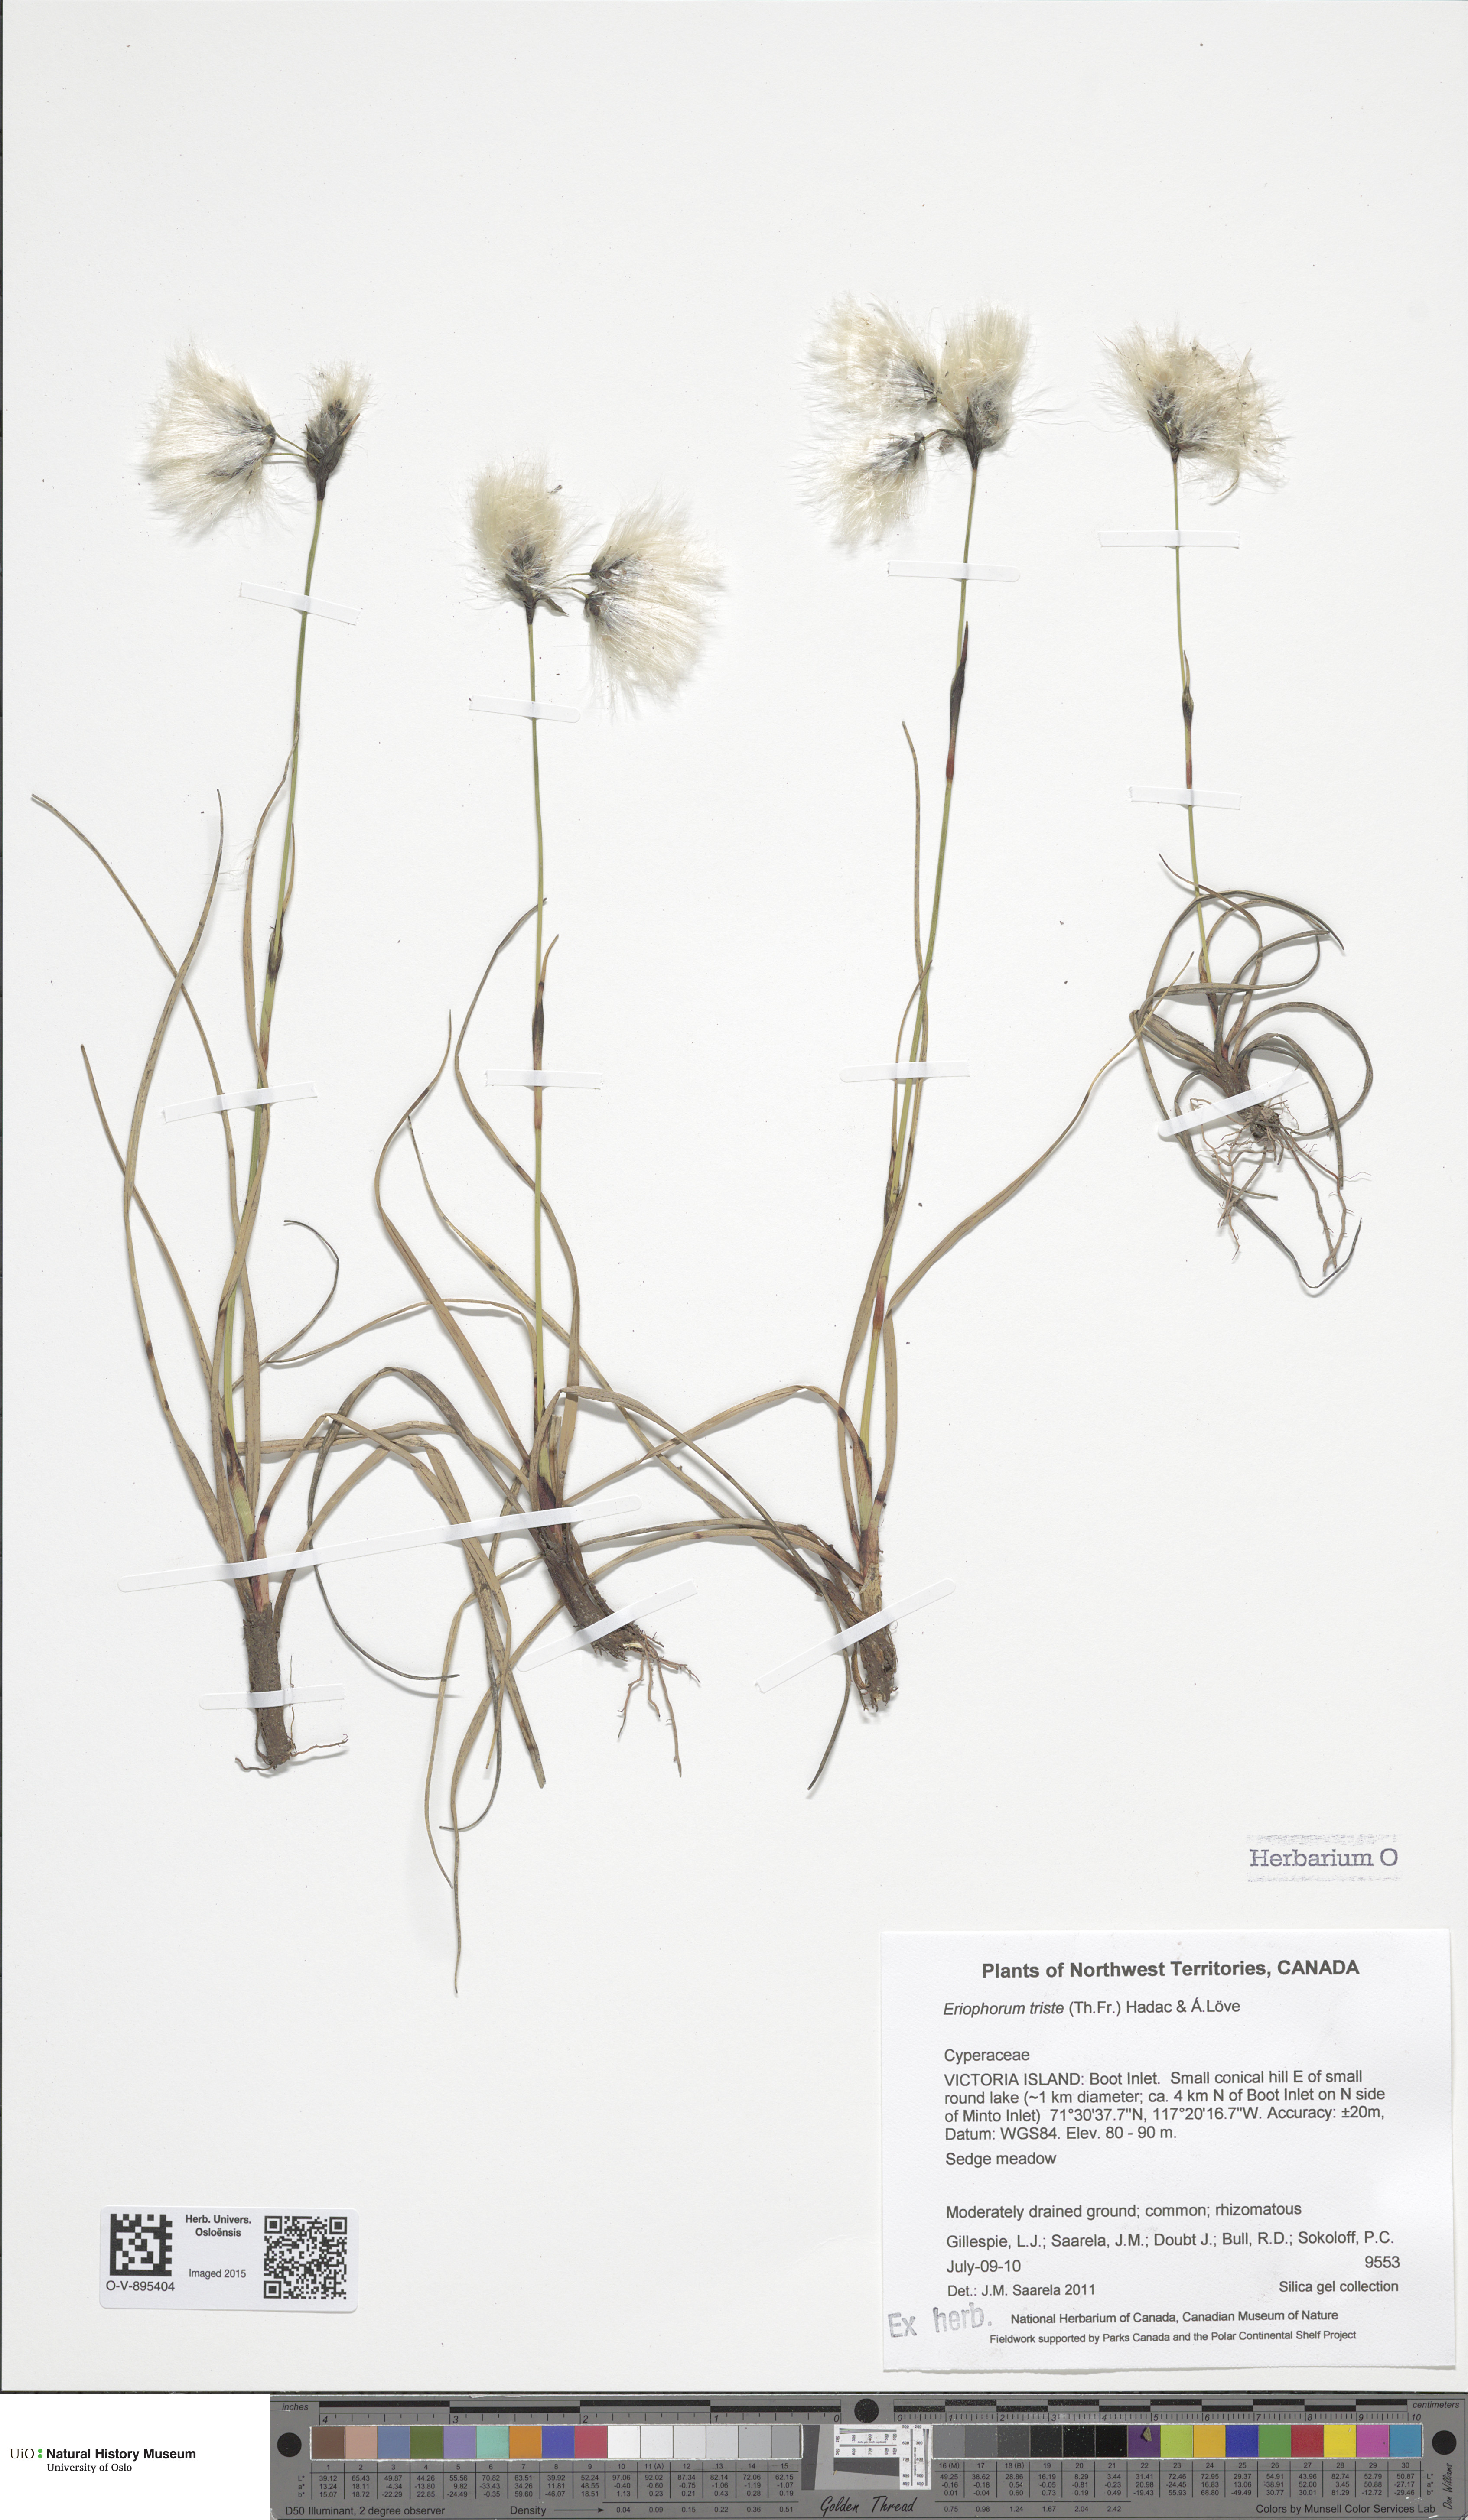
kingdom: Plantae
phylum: Tracheophyta
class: Liliopsida
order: Poales
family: Cyperaceae
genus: Eriophorum
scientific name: Eriophorum triste
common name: Tall cottongrass
